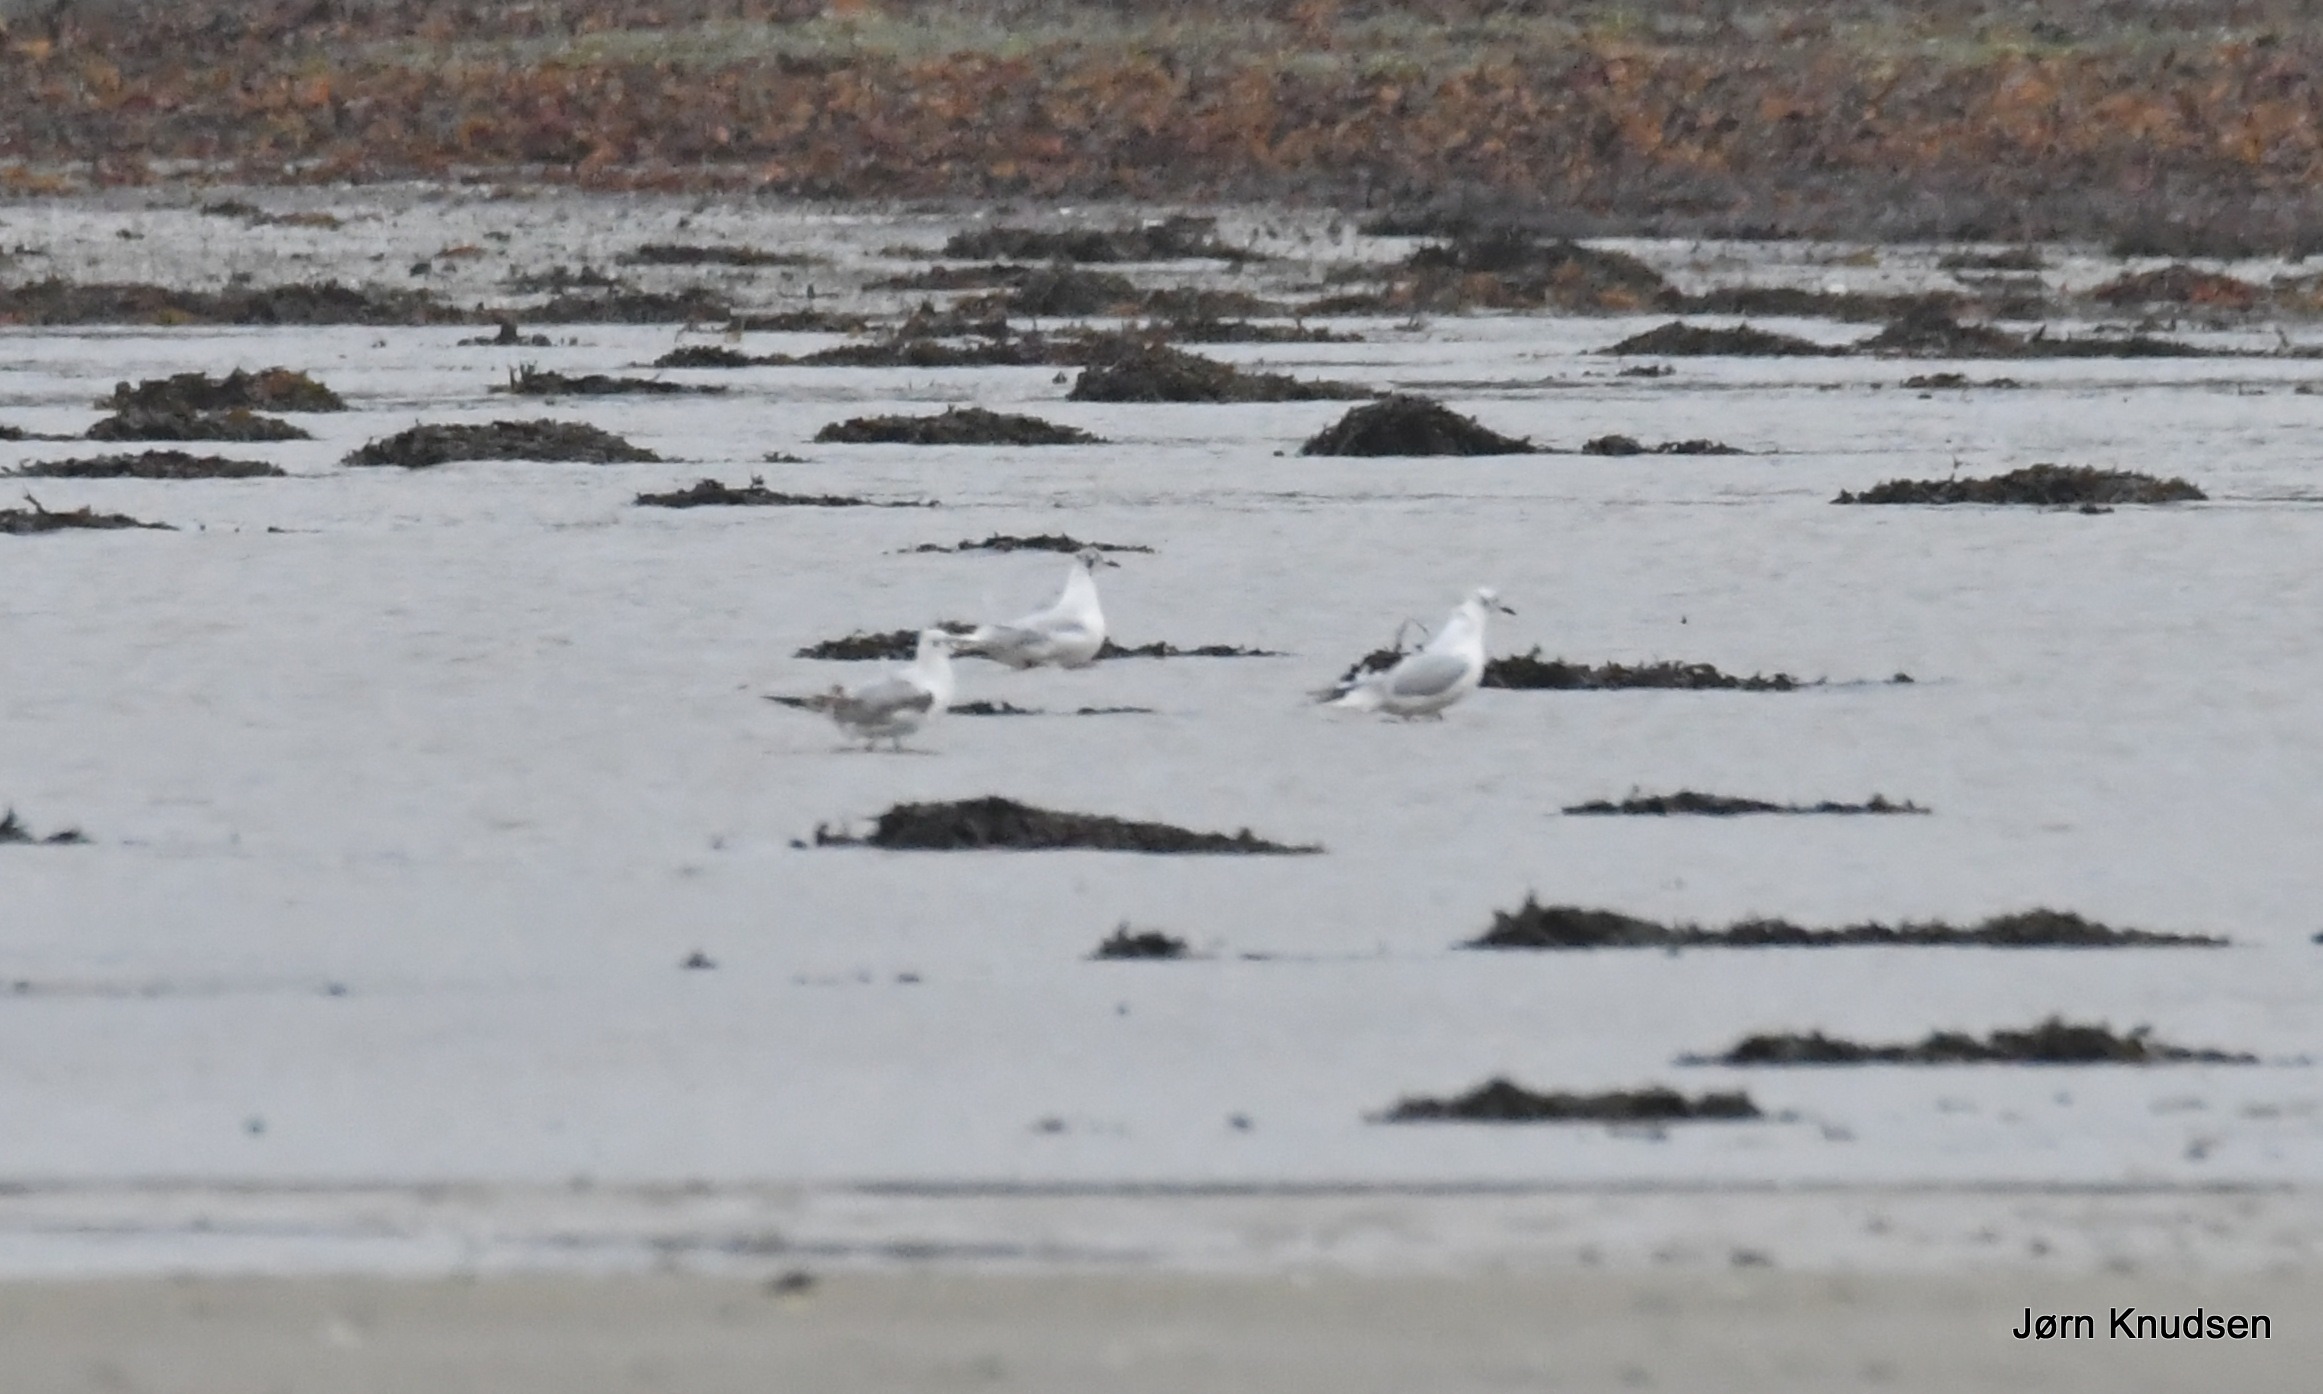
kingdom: Animalia
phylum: Chordata
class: Aves
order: Charadriiformes
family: Laridae
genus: Chroicocephalus
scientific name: Chroicocephalus ridibundus
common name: Hættemåge
